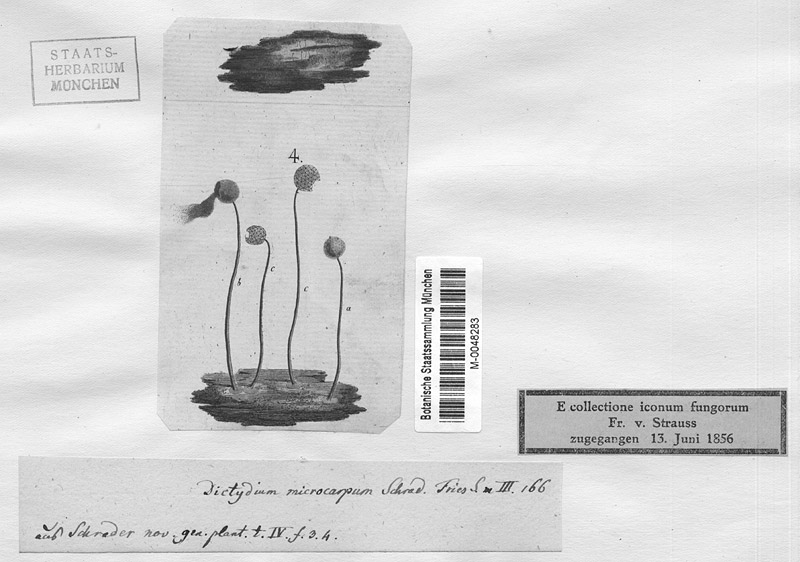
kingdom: Protozoa
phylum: Mycetozoa
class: Myxomycetes
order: Cribrariales
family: Cribrariaceae
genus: Cribraria
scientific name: Cribraria macrocarpa
